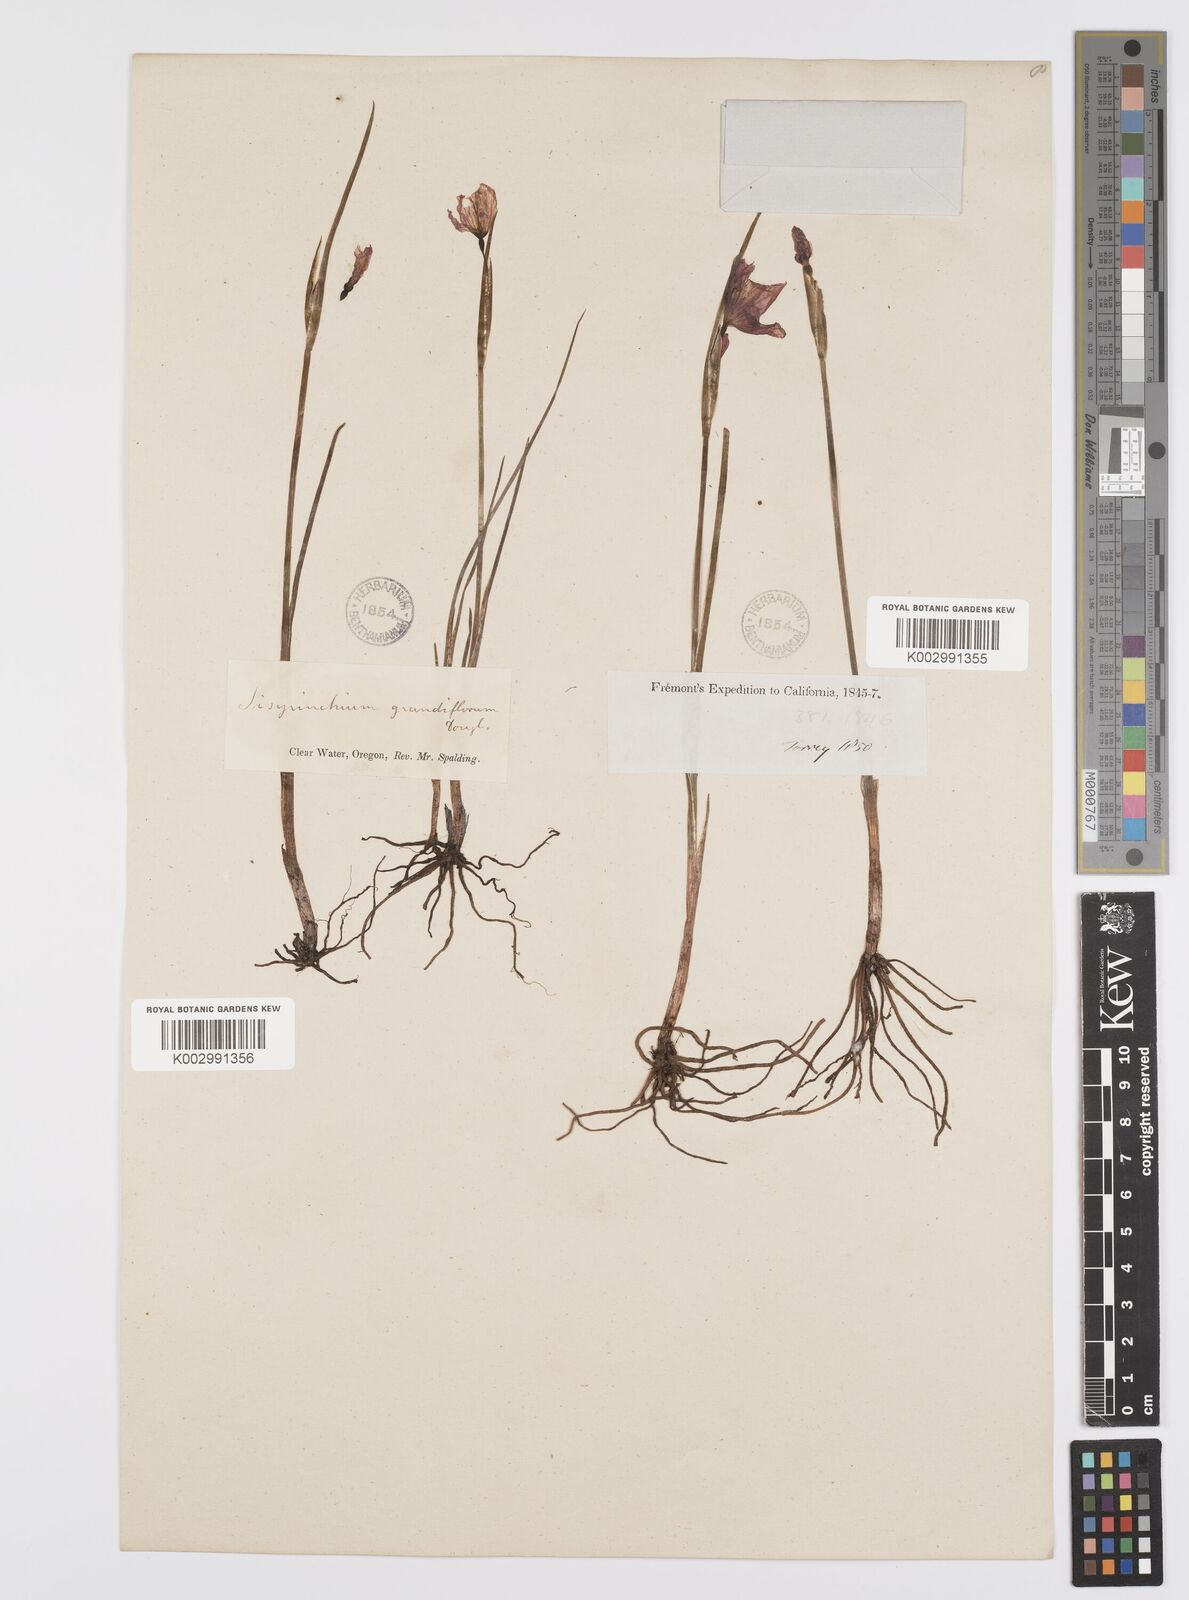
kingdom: Plantae
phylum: Tracheophyta
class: Liliopsida
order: Asparagales
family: Iridaceae
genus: Olsynium
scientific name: Olsynium douglasii
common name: Douglas' grasswidow
